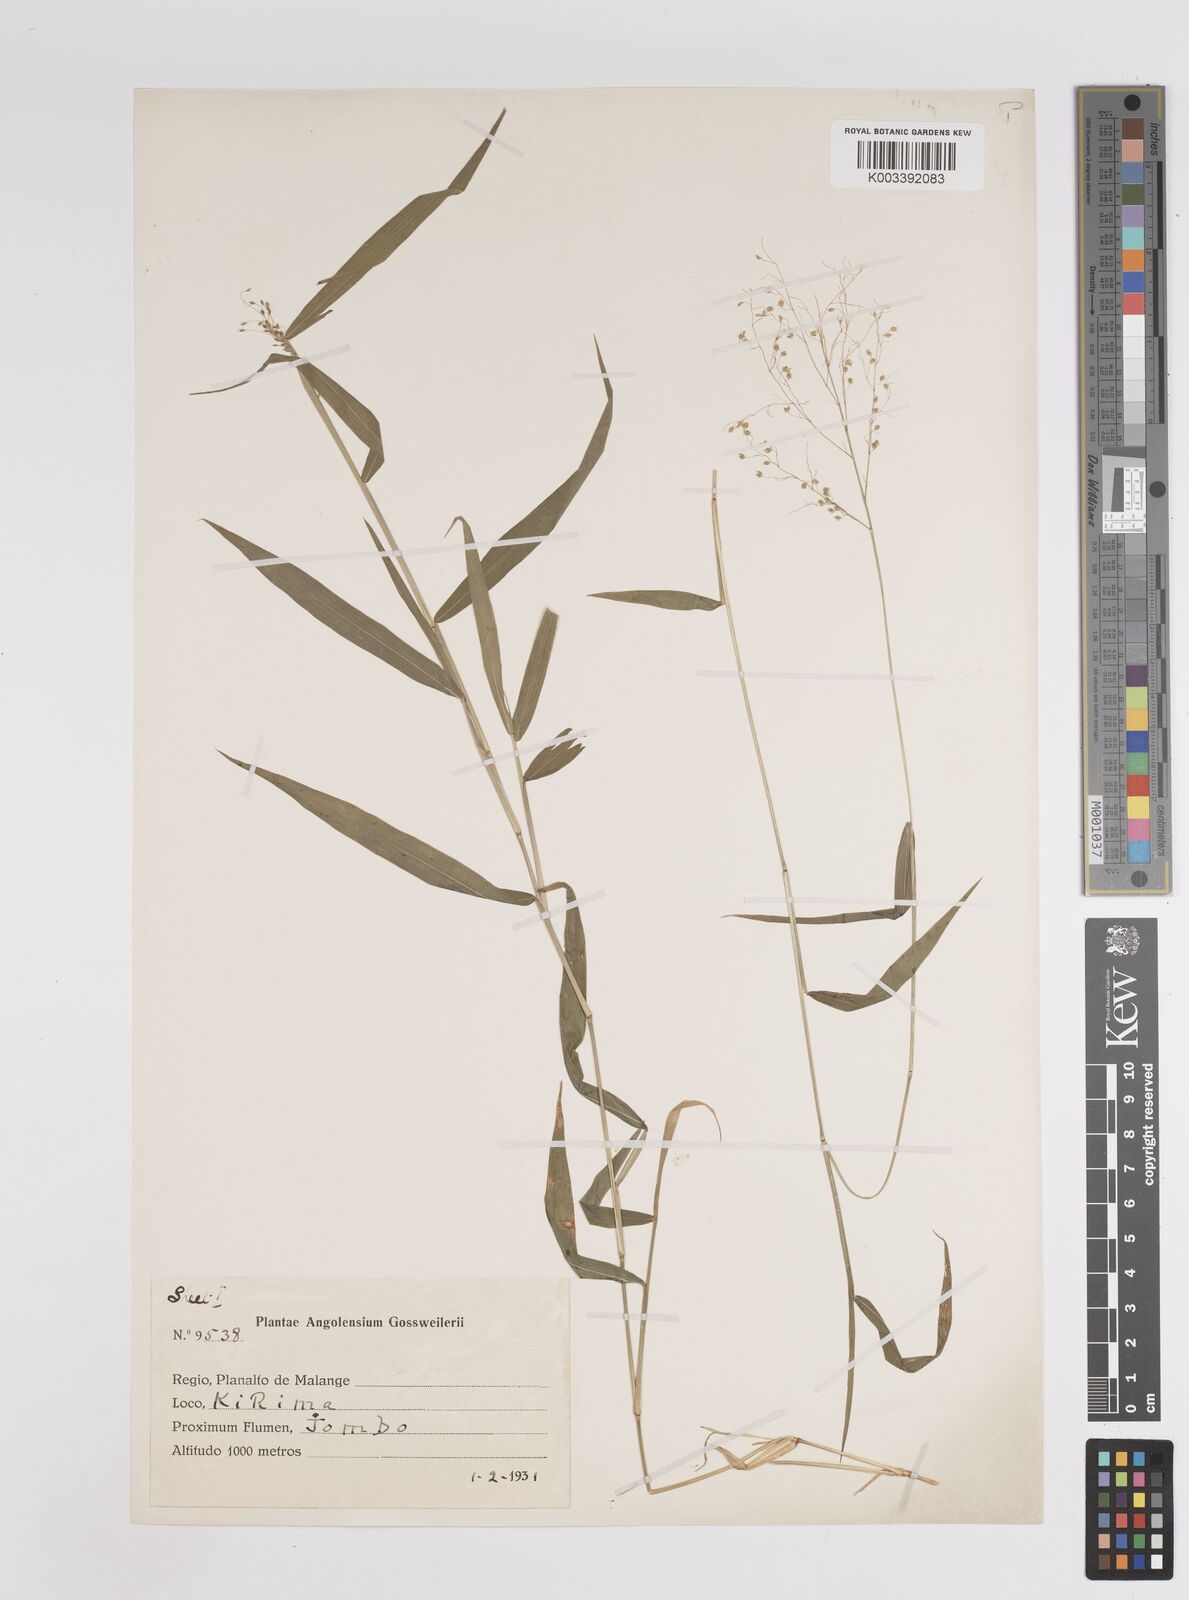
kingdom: Plantae
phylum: Tracheophyta
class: Liliopsida
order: Poales
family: Poaceae
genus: Trichanthecium
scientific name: Trichanthecium gracilicaule
